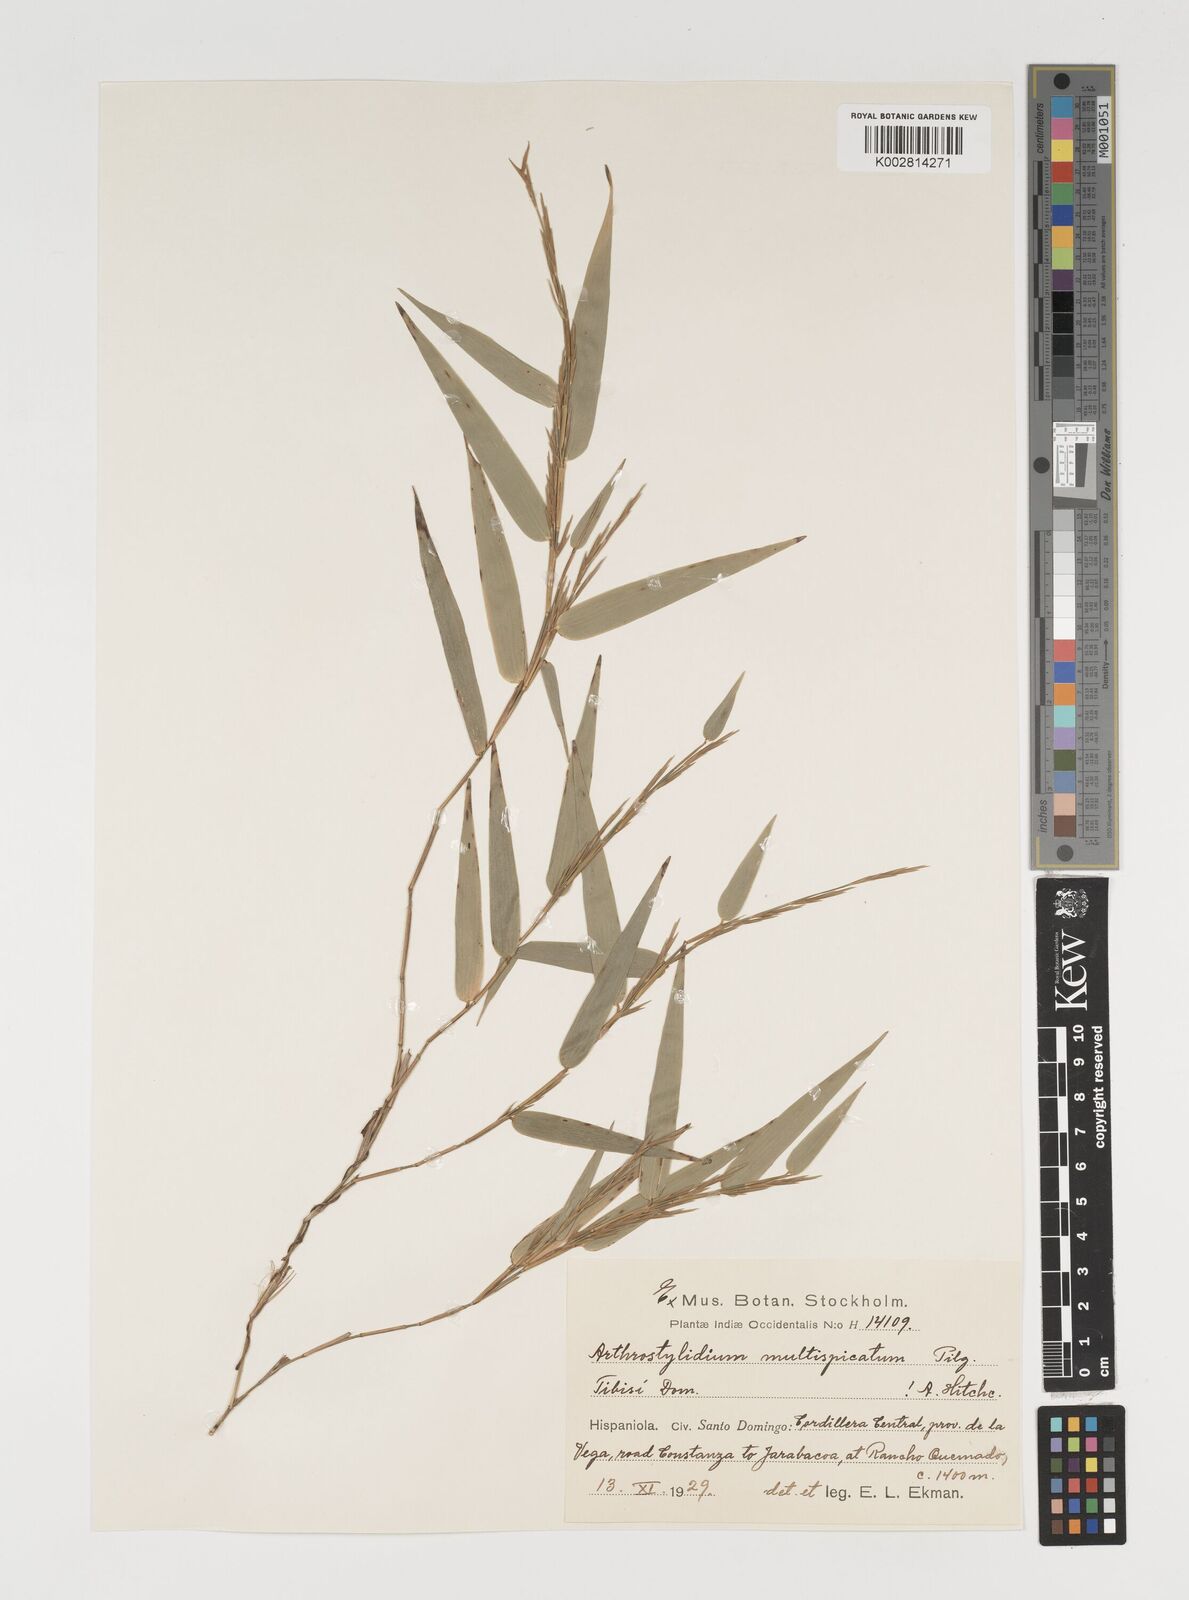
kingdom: Plantae
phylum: Tracheophyta
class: Liliopsida
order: Poales
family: Poaceae
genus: Arthrostylidium
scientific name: Arthrostylidium multispicatum
